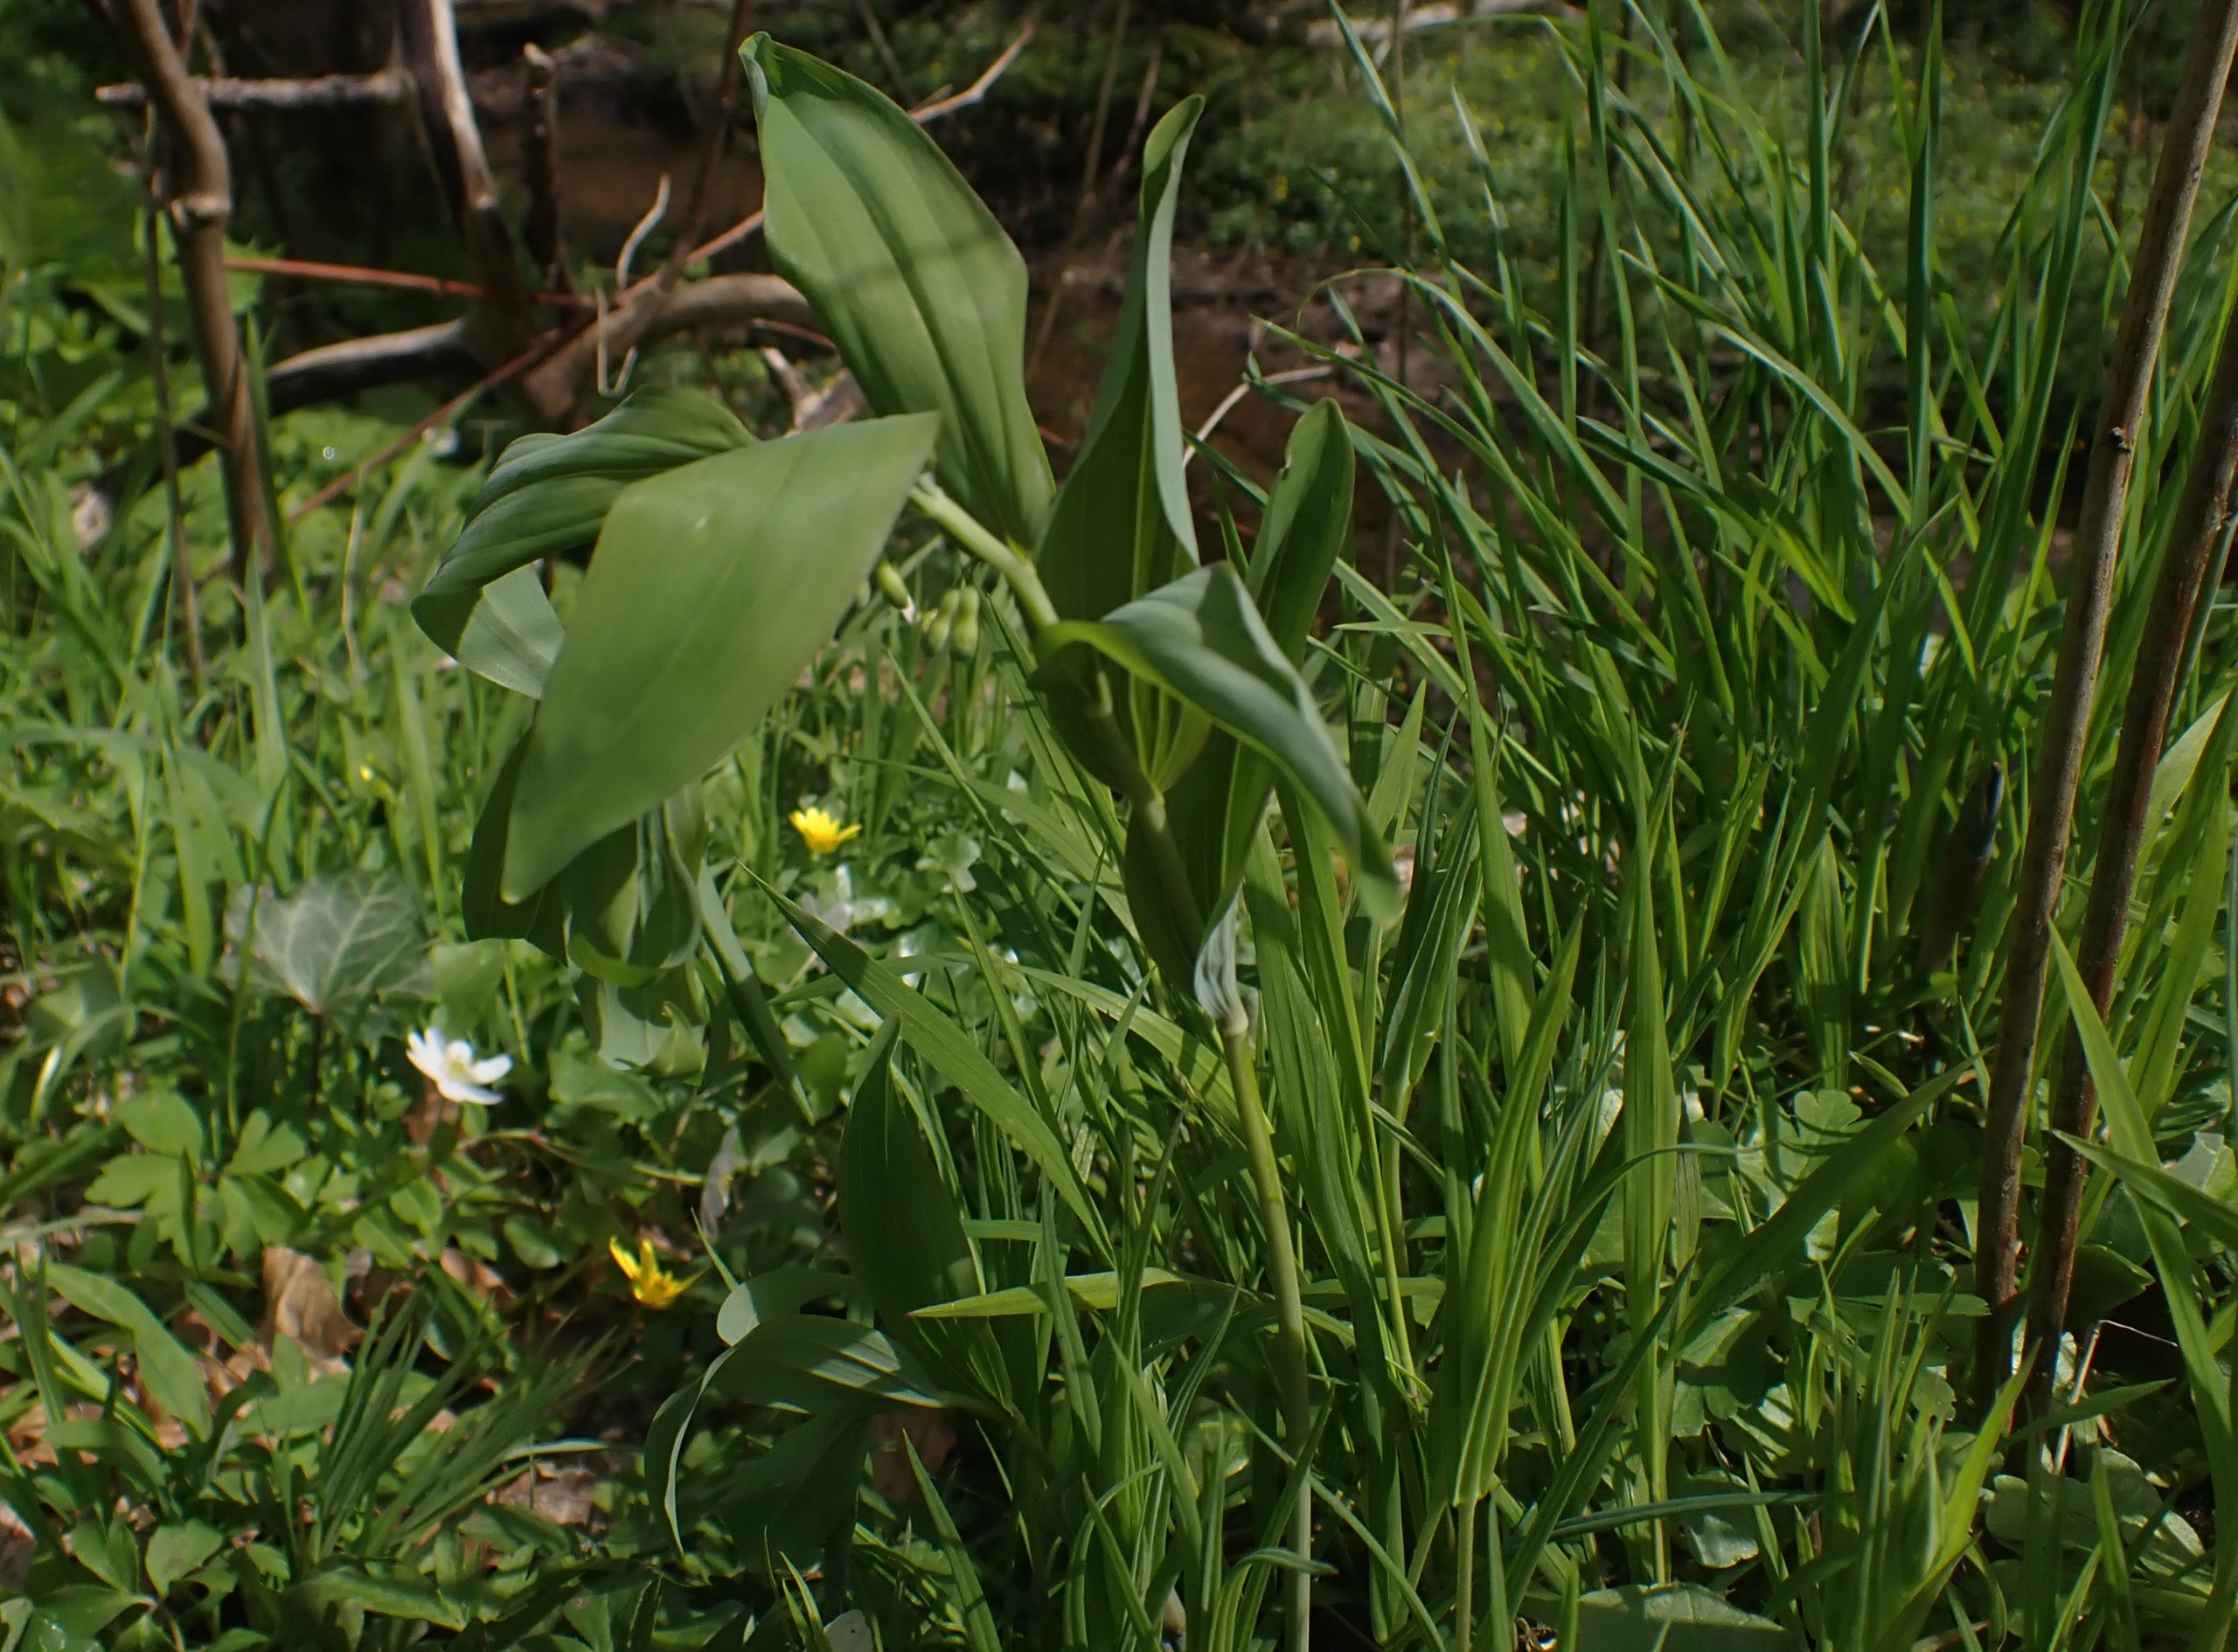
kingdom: Plantae
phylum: Tracheophyta
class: Liliopsida
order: Asparagales
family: Asparagaceae
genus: Polygonatum
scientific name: Polygonatum multiflorum
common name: Stor konval
